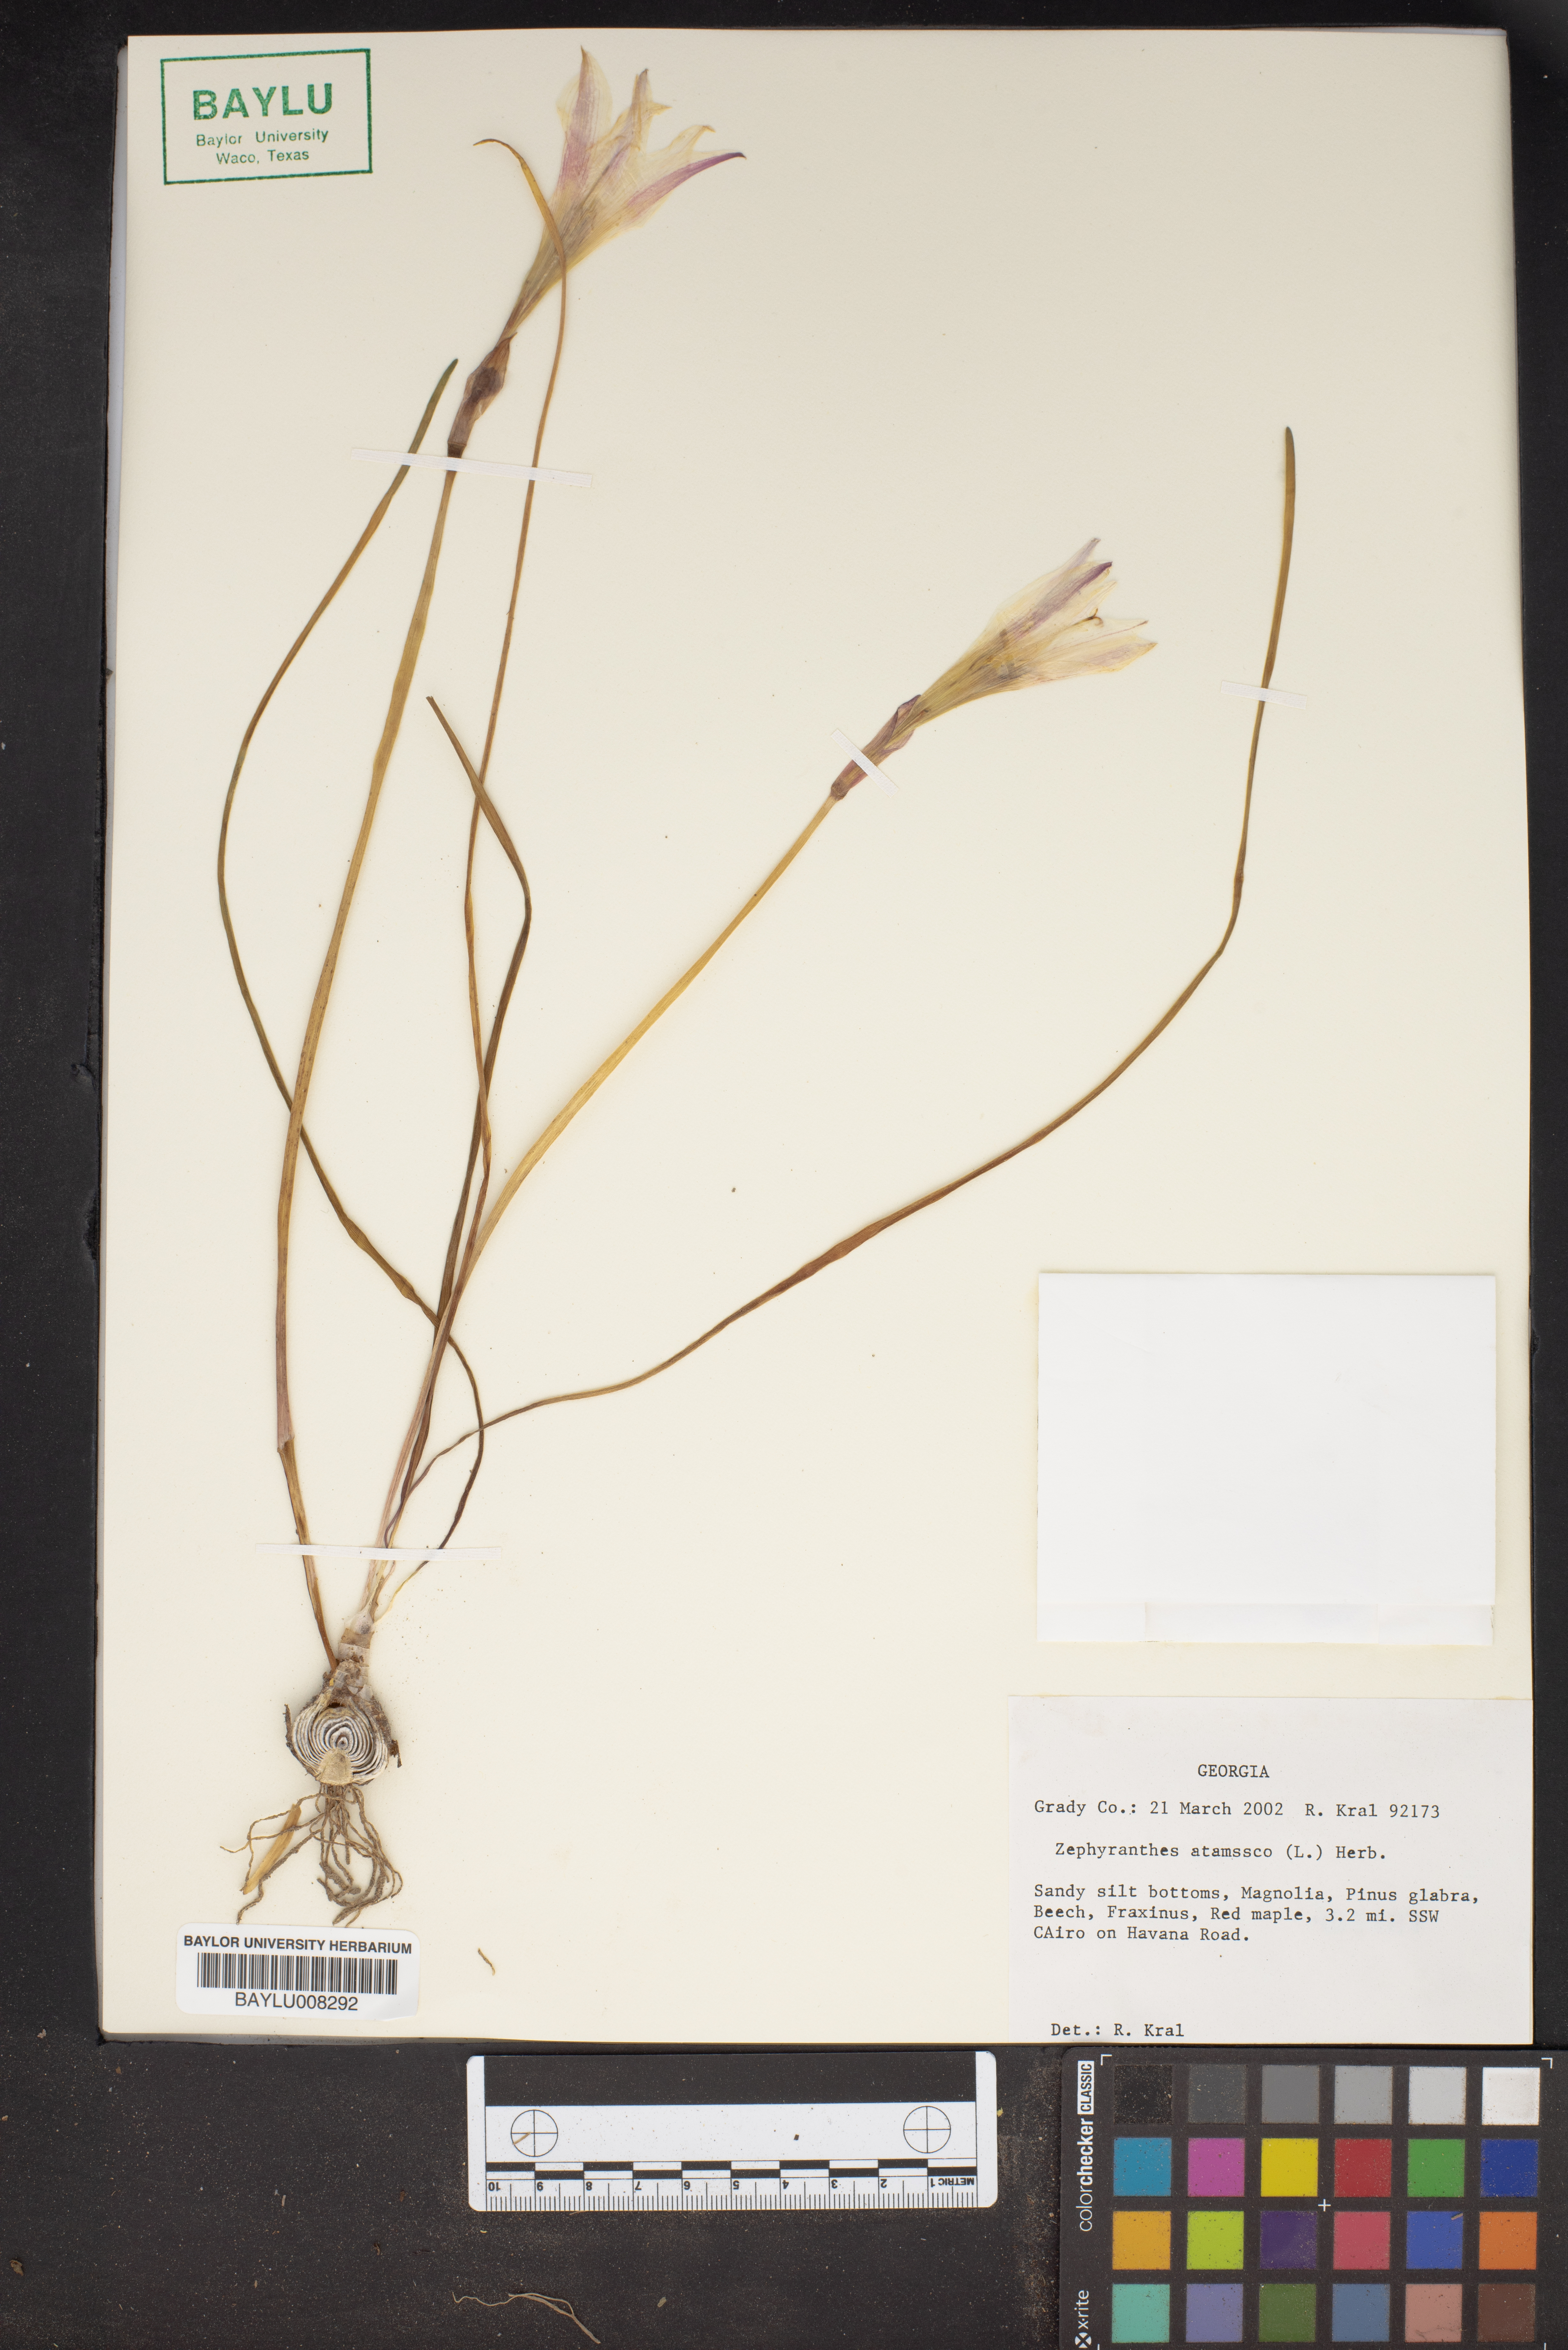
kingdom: Plantae
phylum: Tracheophyta
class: Liliopsida
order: Asparagales
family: Amaryllidaceae
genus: Zephyranthes
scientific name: Zephyranthes atamasco
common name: Atamasco lily
